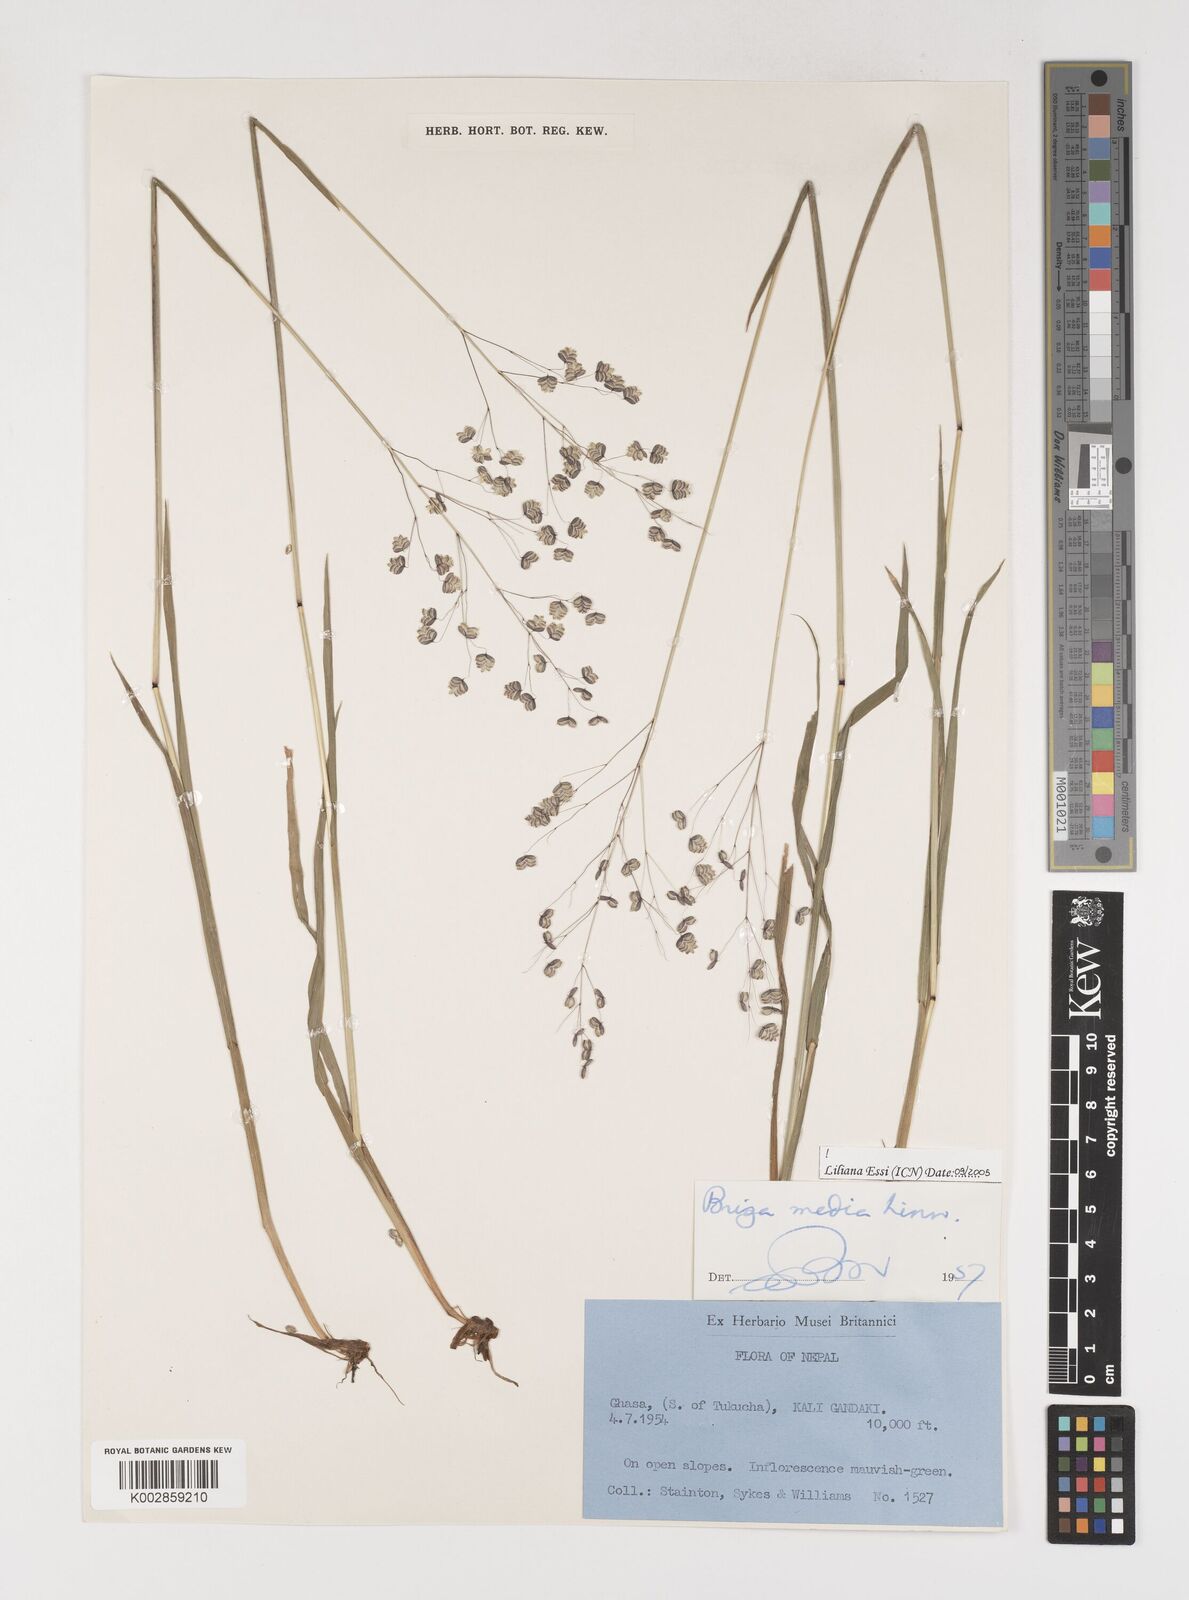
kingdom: Plantae
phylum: Tracheophyta
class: Liliopsida
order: Poales
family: Poaceae
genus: Briza
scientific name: Briza media
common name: Quaking grass
